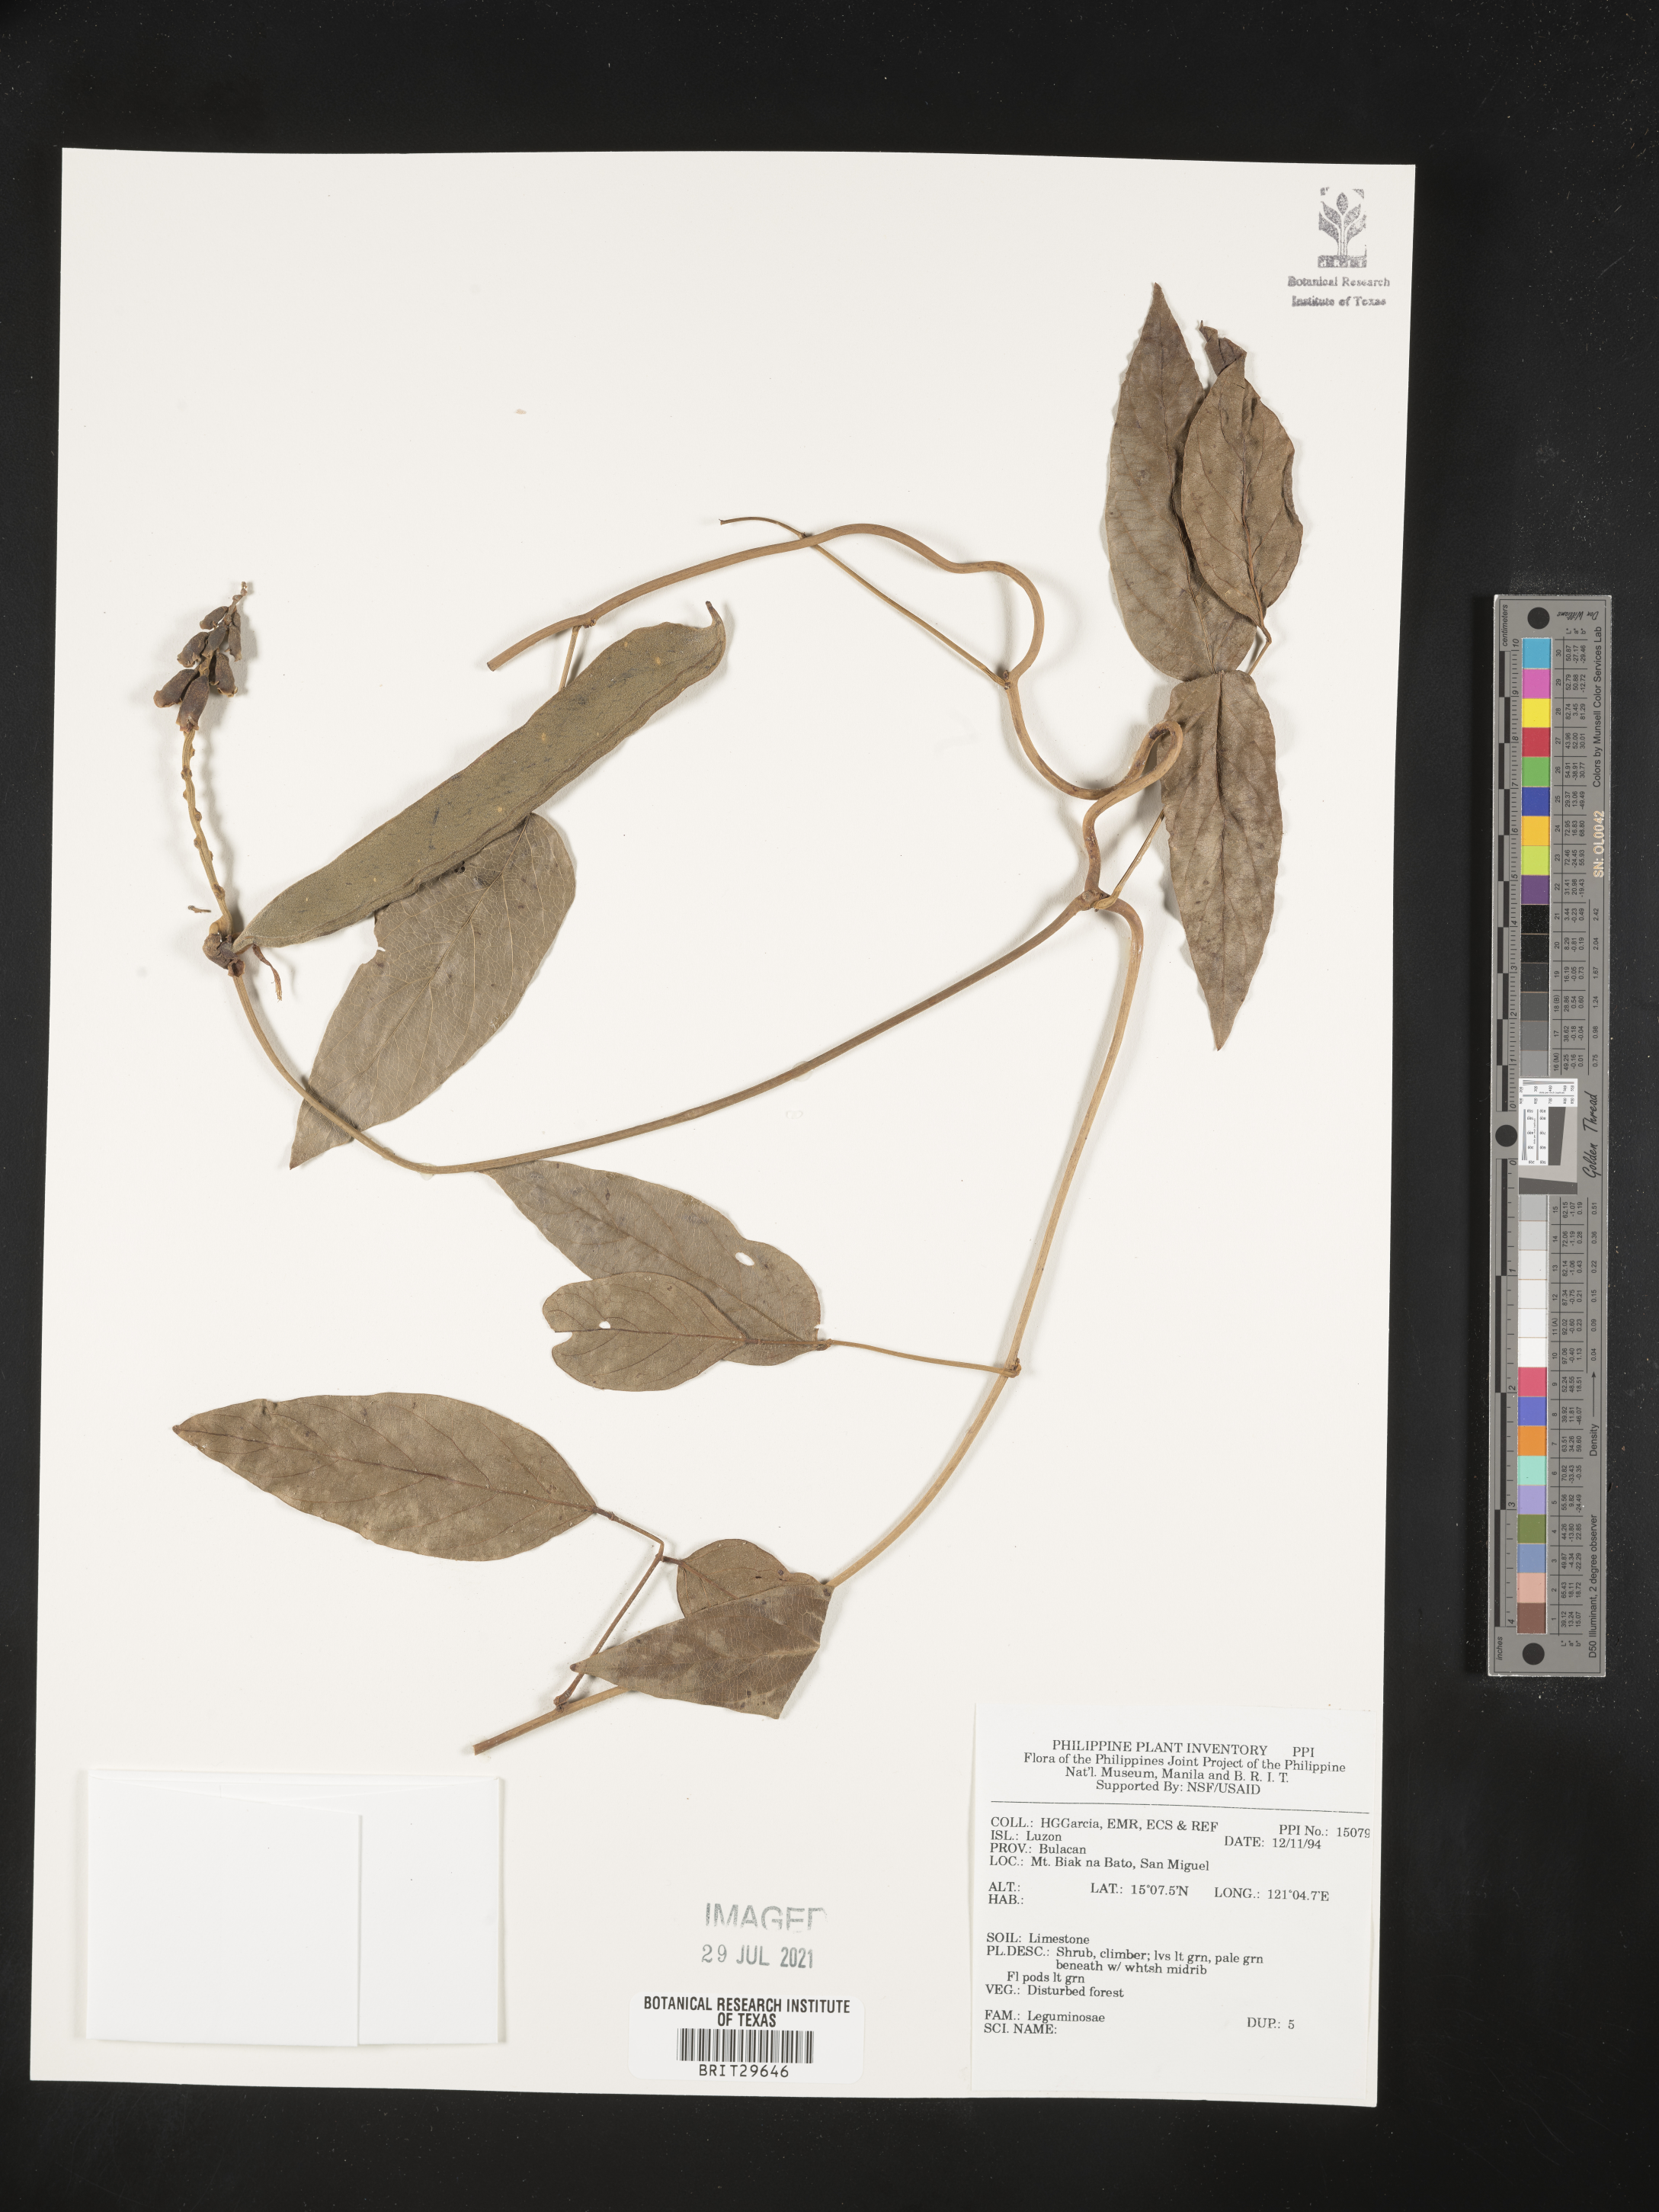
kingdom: Plantae
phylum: Tracheophyta
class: Magnoliopsida
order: Fabales
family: Fabaceae
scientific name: Fabaceae
